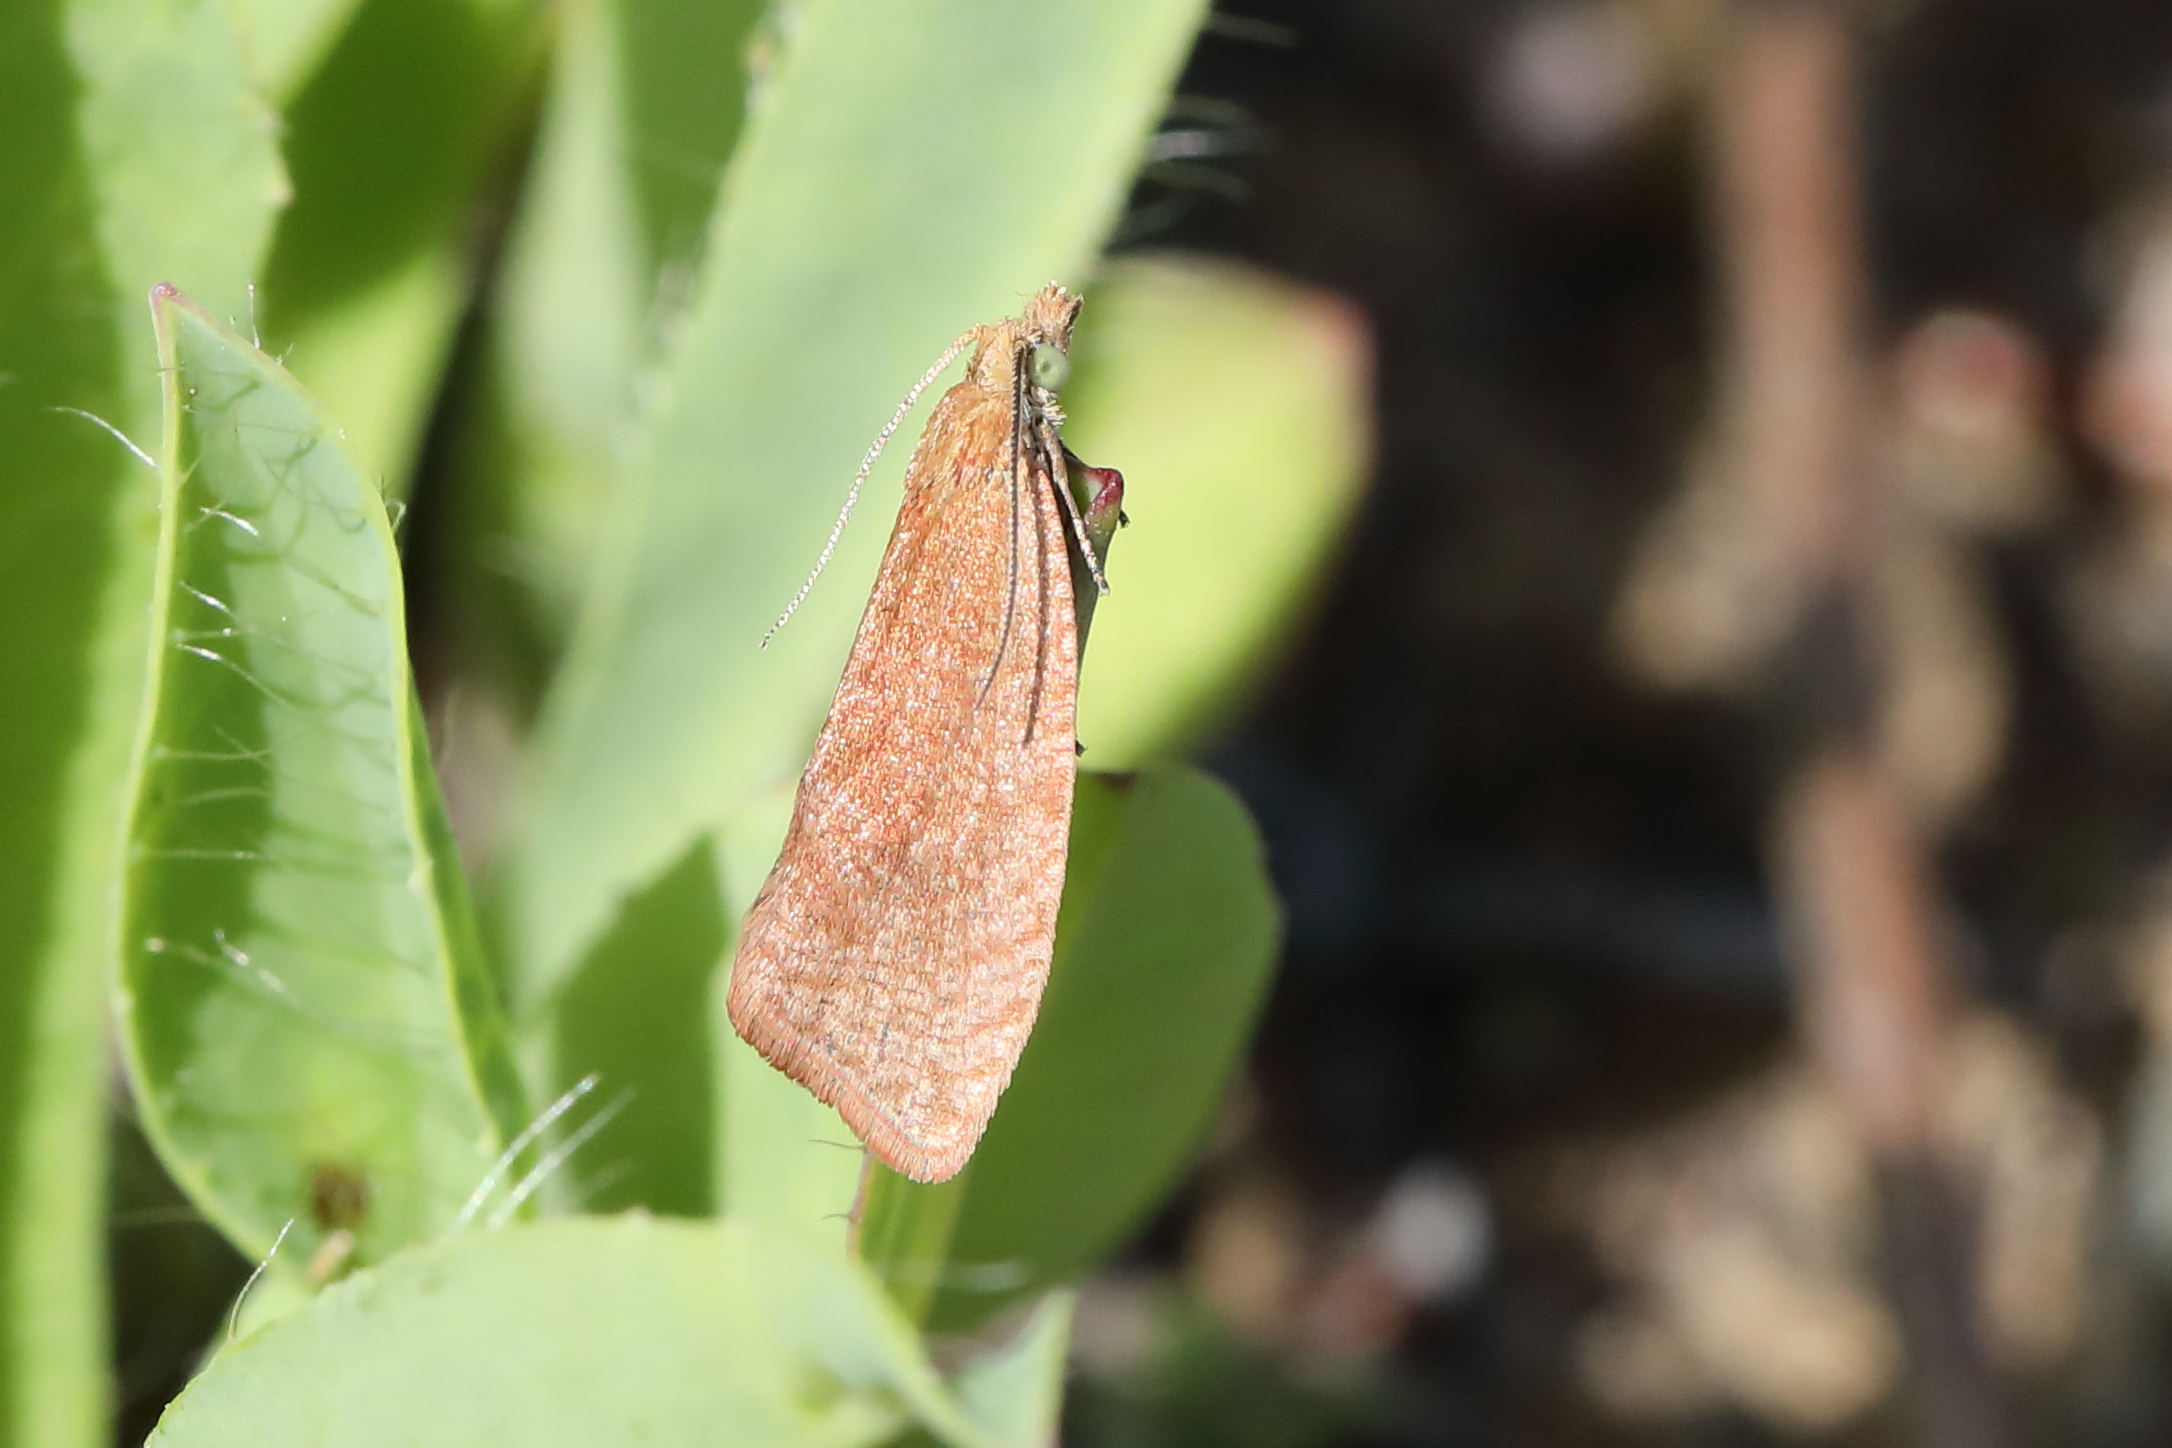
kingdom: Animalia
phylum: Arthropoda
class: Insecta
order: Lepidoptera
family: Tortricidae
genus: Celypha
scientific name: Celypha rufana
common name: Lakes marble
